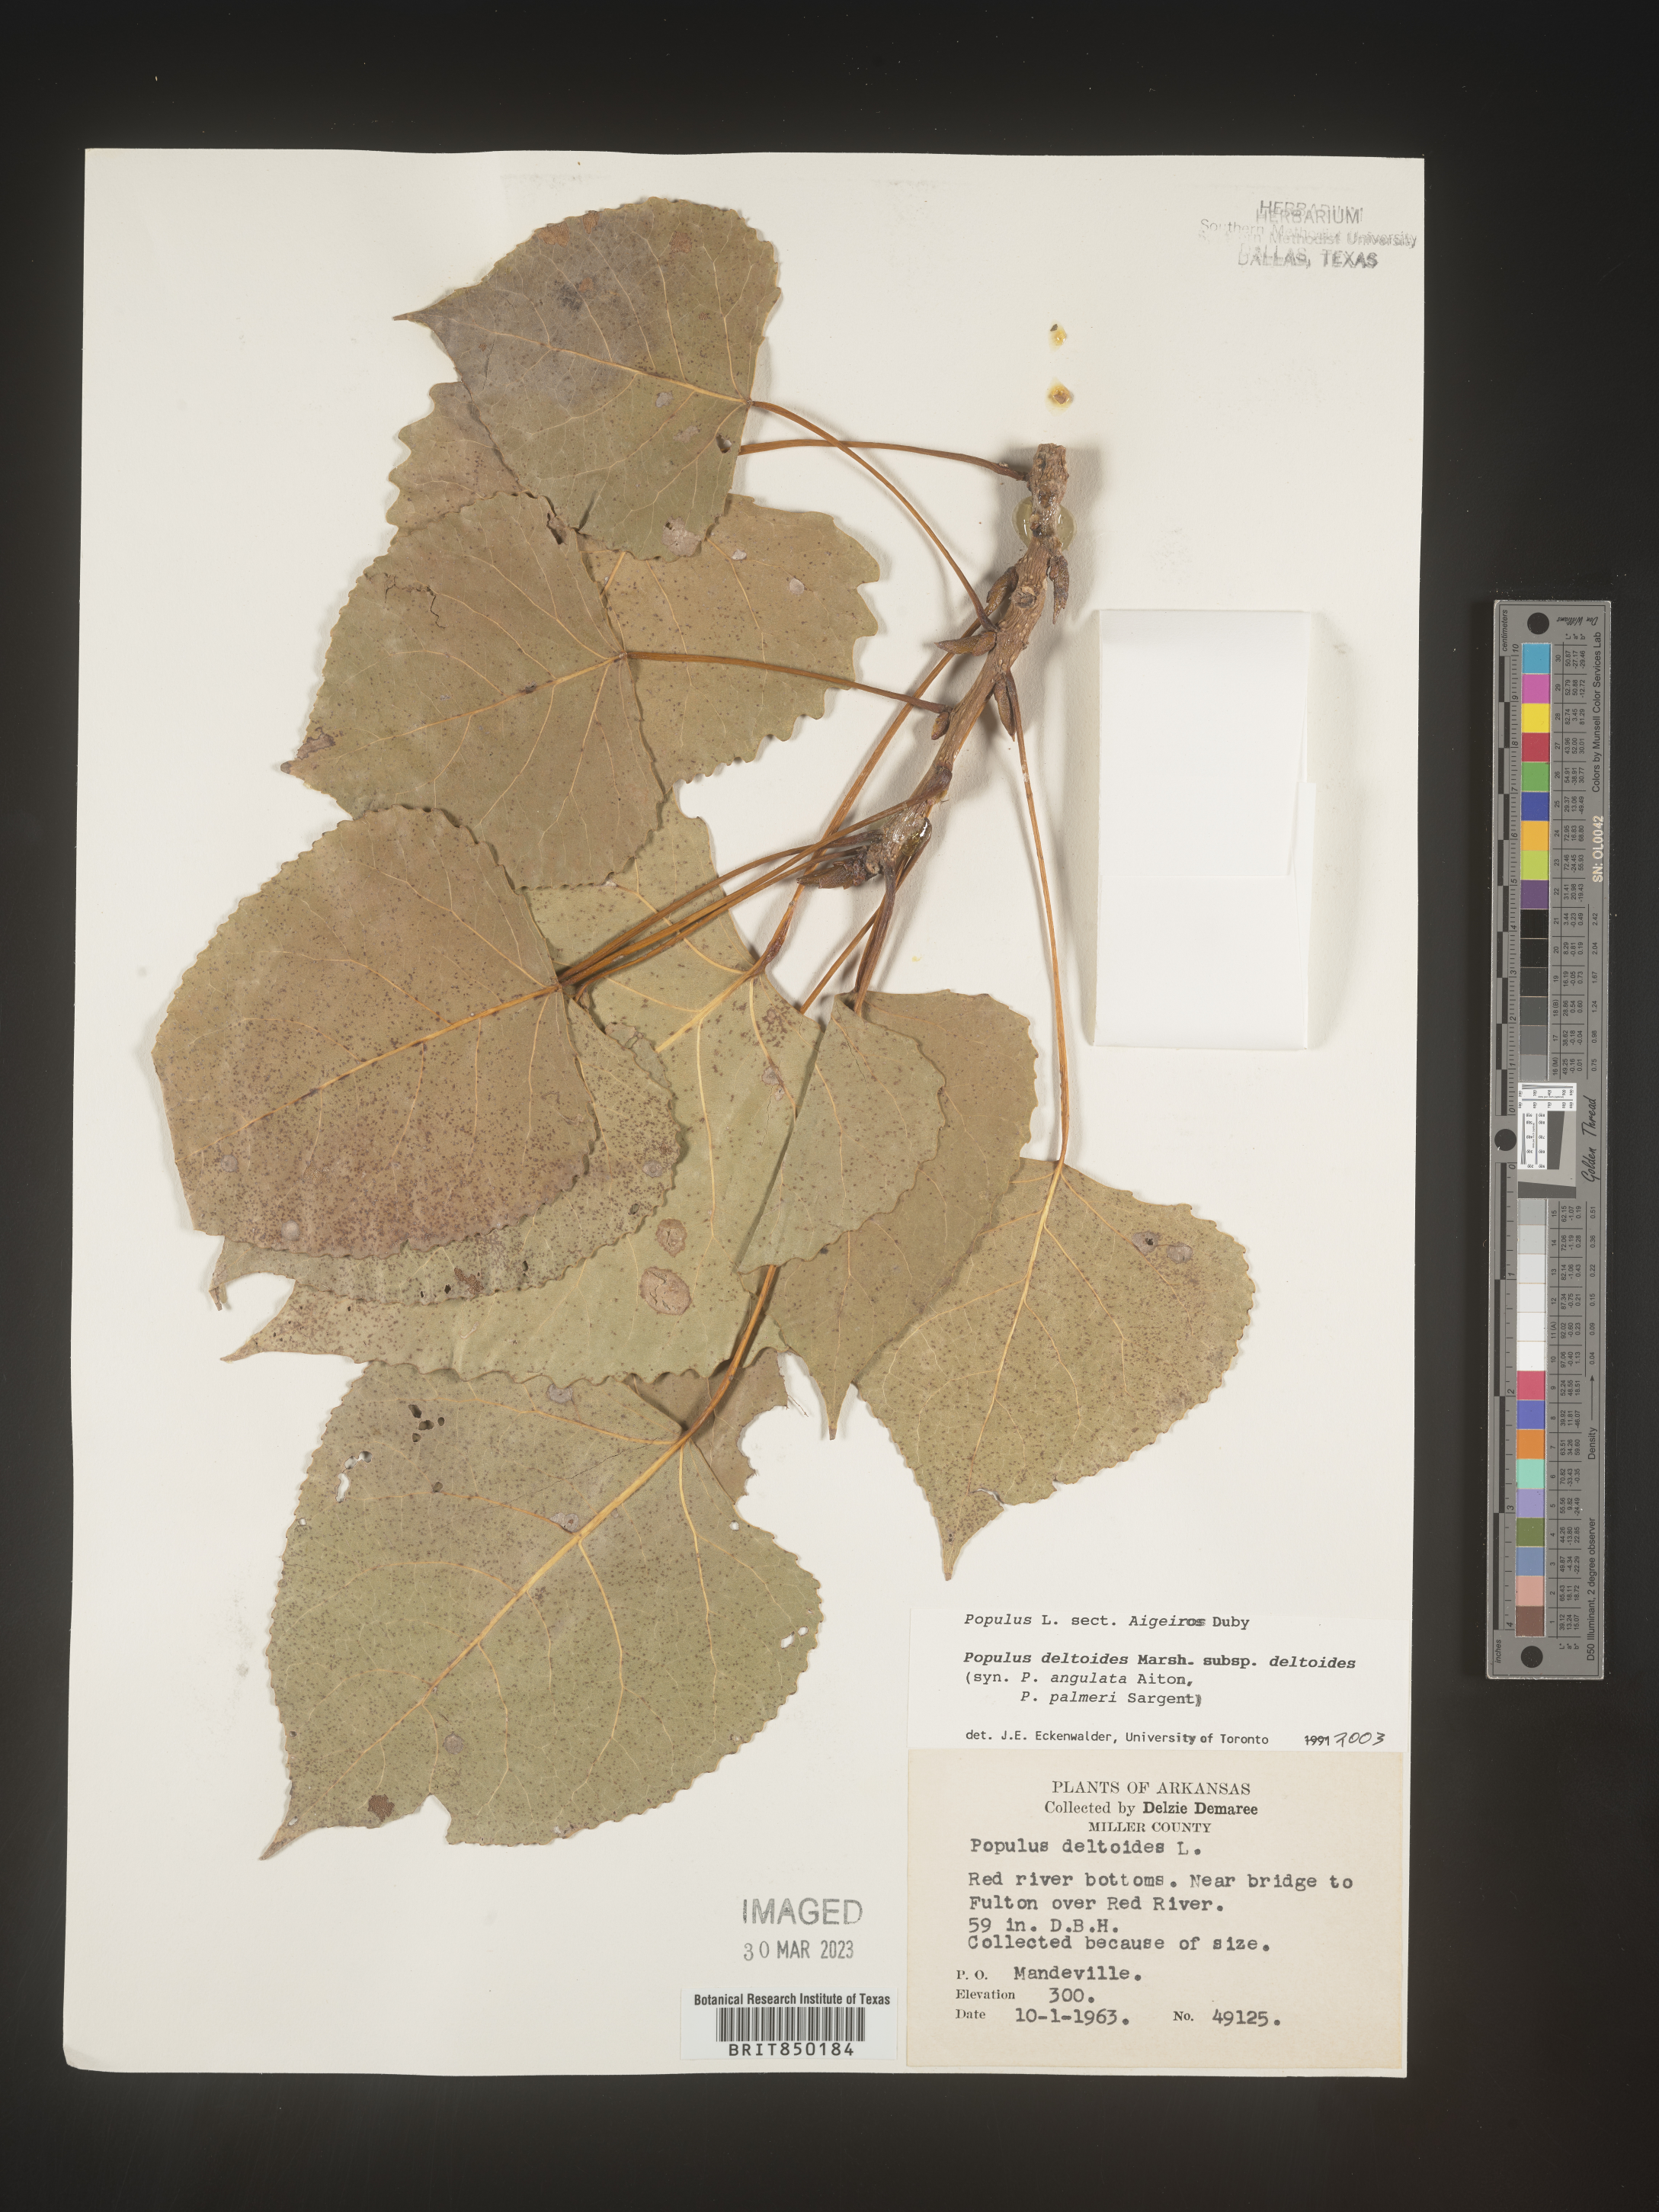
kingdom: Plantae
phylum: Tracheophyta
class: Magnoliopsida
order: Malpighiales
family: Salicaceae
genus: Populus
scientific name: Populus deltoides
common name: Eastern cottonwood
